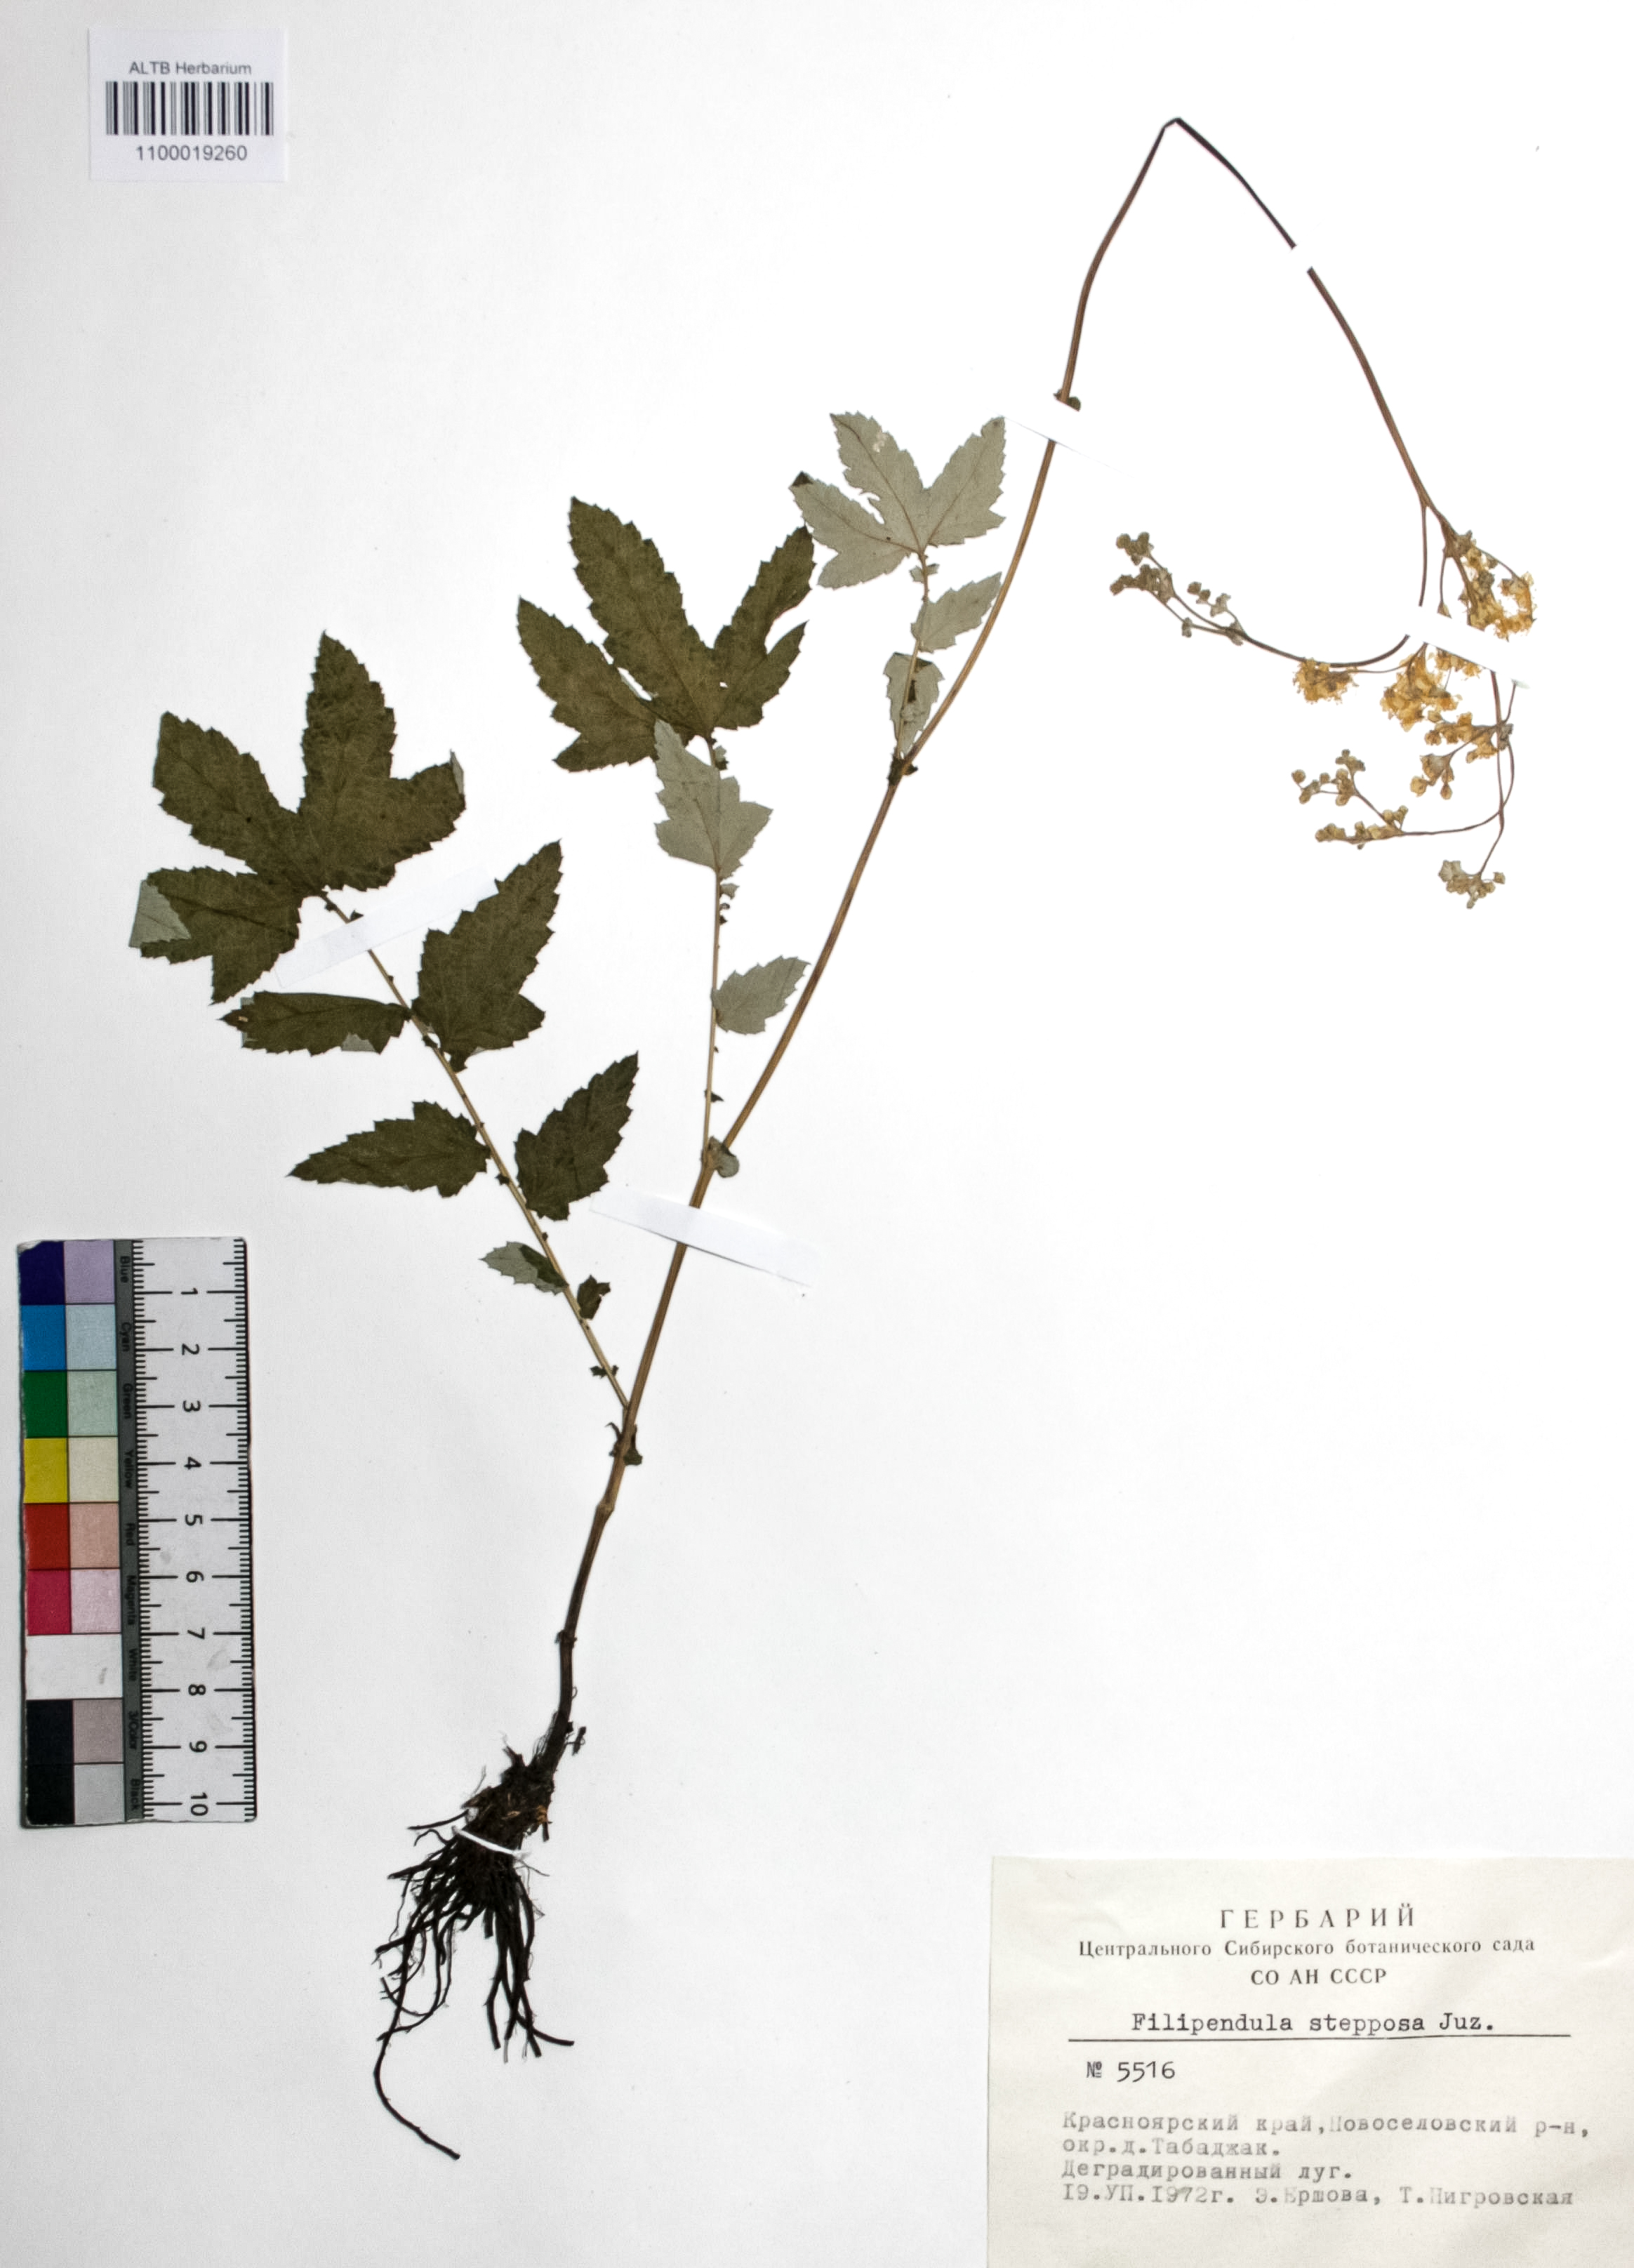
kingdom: Plantae
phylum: Tracheophyta
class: Magnoliopsida
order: Rosales
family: Rosaceae
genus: Filipendula
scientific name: Filipendula ulmaria
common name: Meadowsweet
